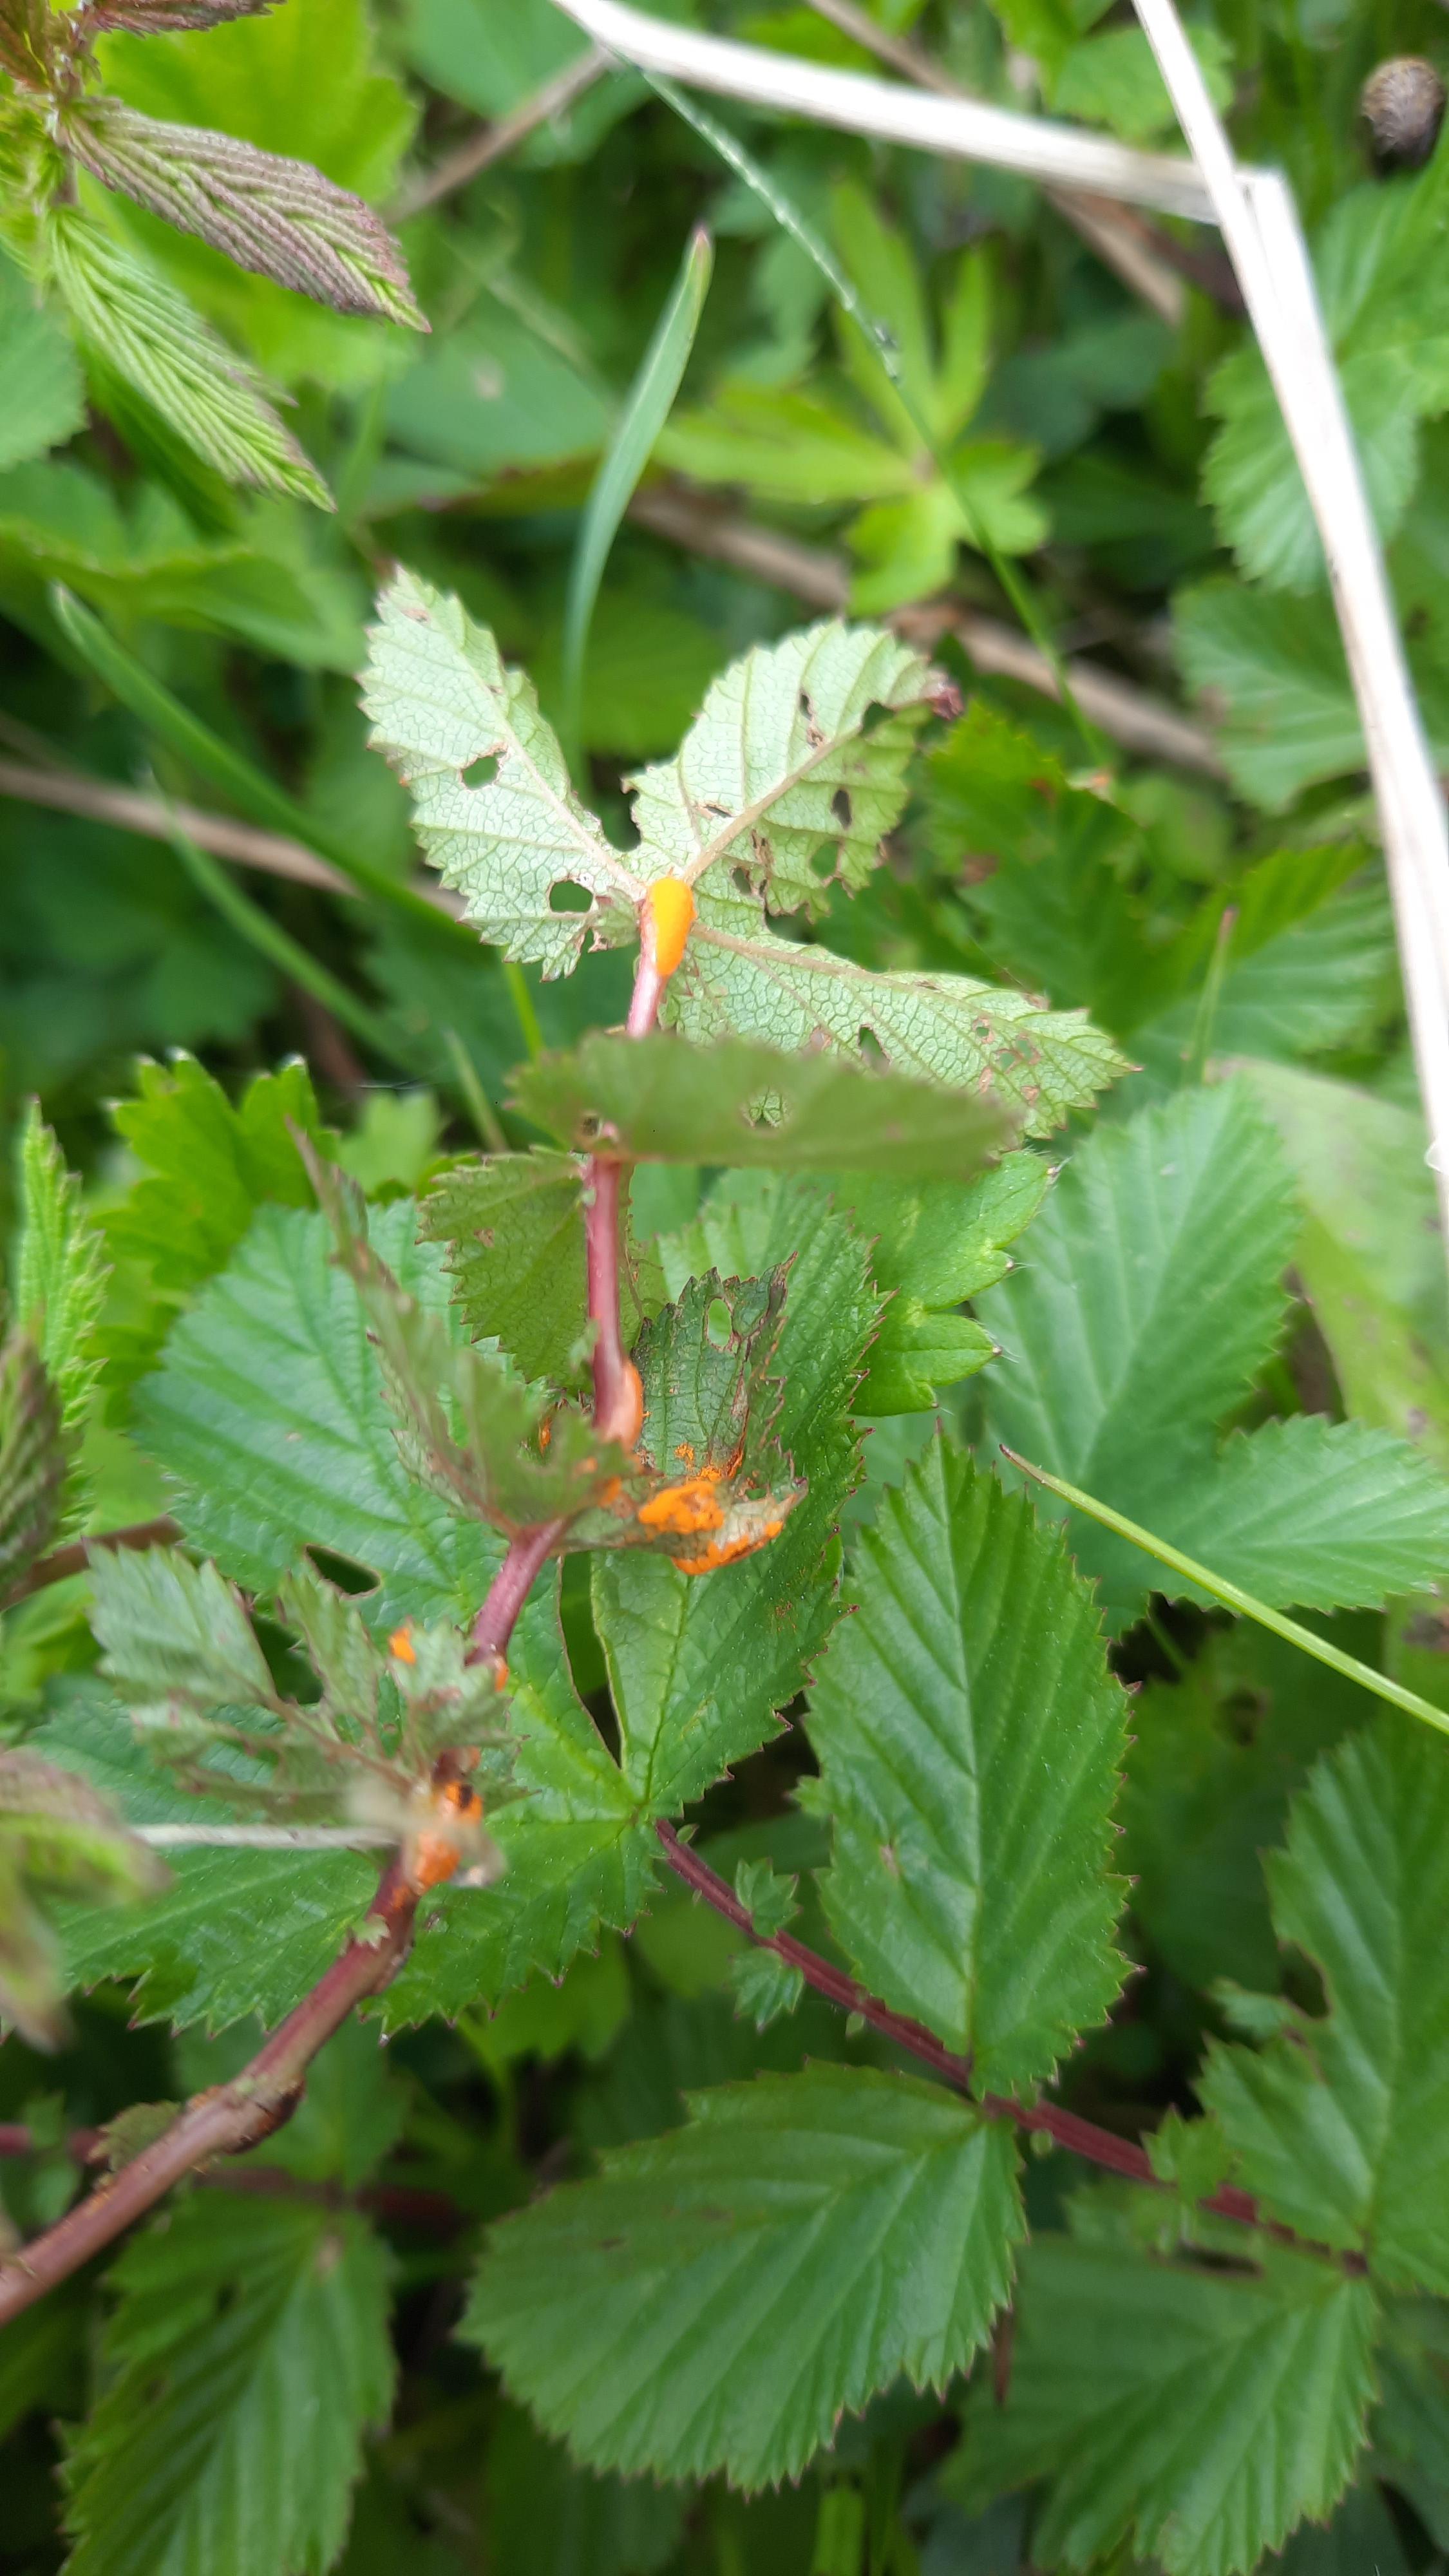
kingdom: Fungi
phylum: Basidiomycota
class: Pucciniomycetes
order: Pucciniales
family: Raveneliaceae
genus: Triphragmium
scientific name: Triphragmium ulmariae
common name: almindelig mjødurtrust
